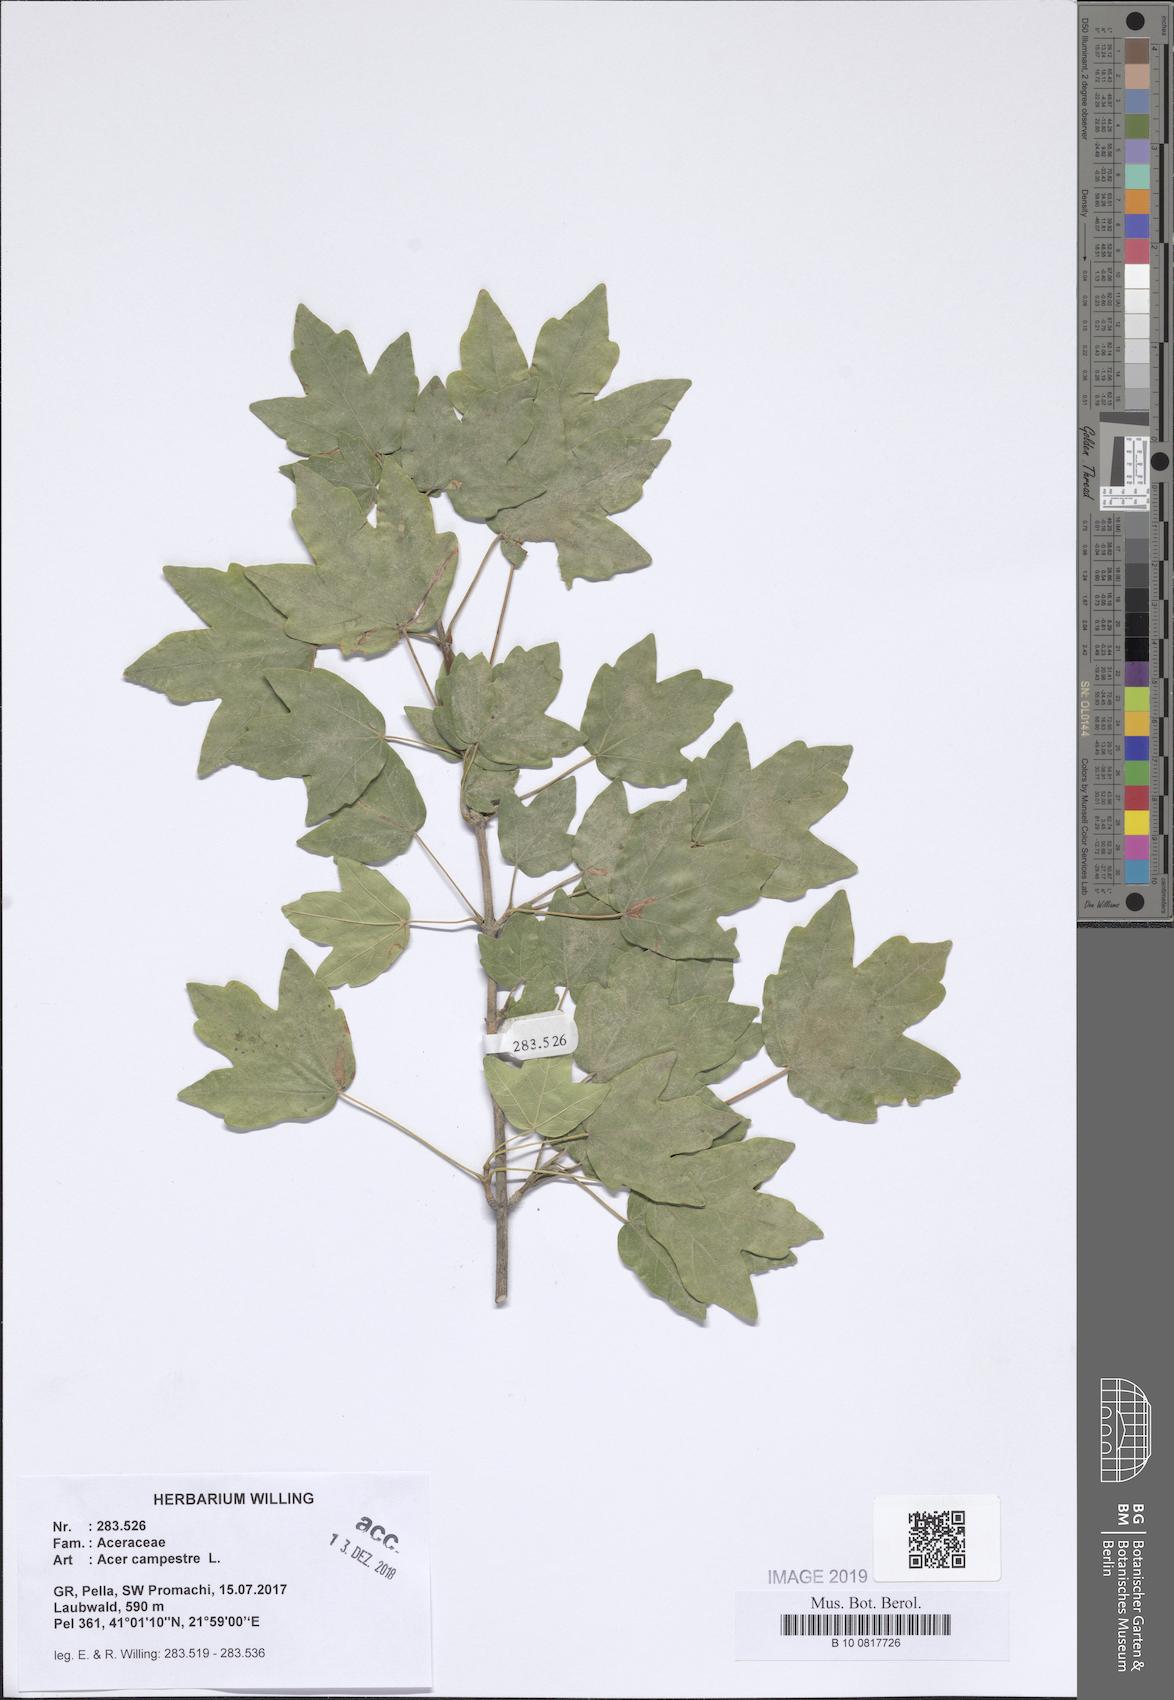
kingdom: Plantae
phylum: Tracheophyta
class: Magnoliopsida
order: Sapindales
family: Sapindaceae
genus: Acer
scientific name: Acer campestre
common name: Field maple
